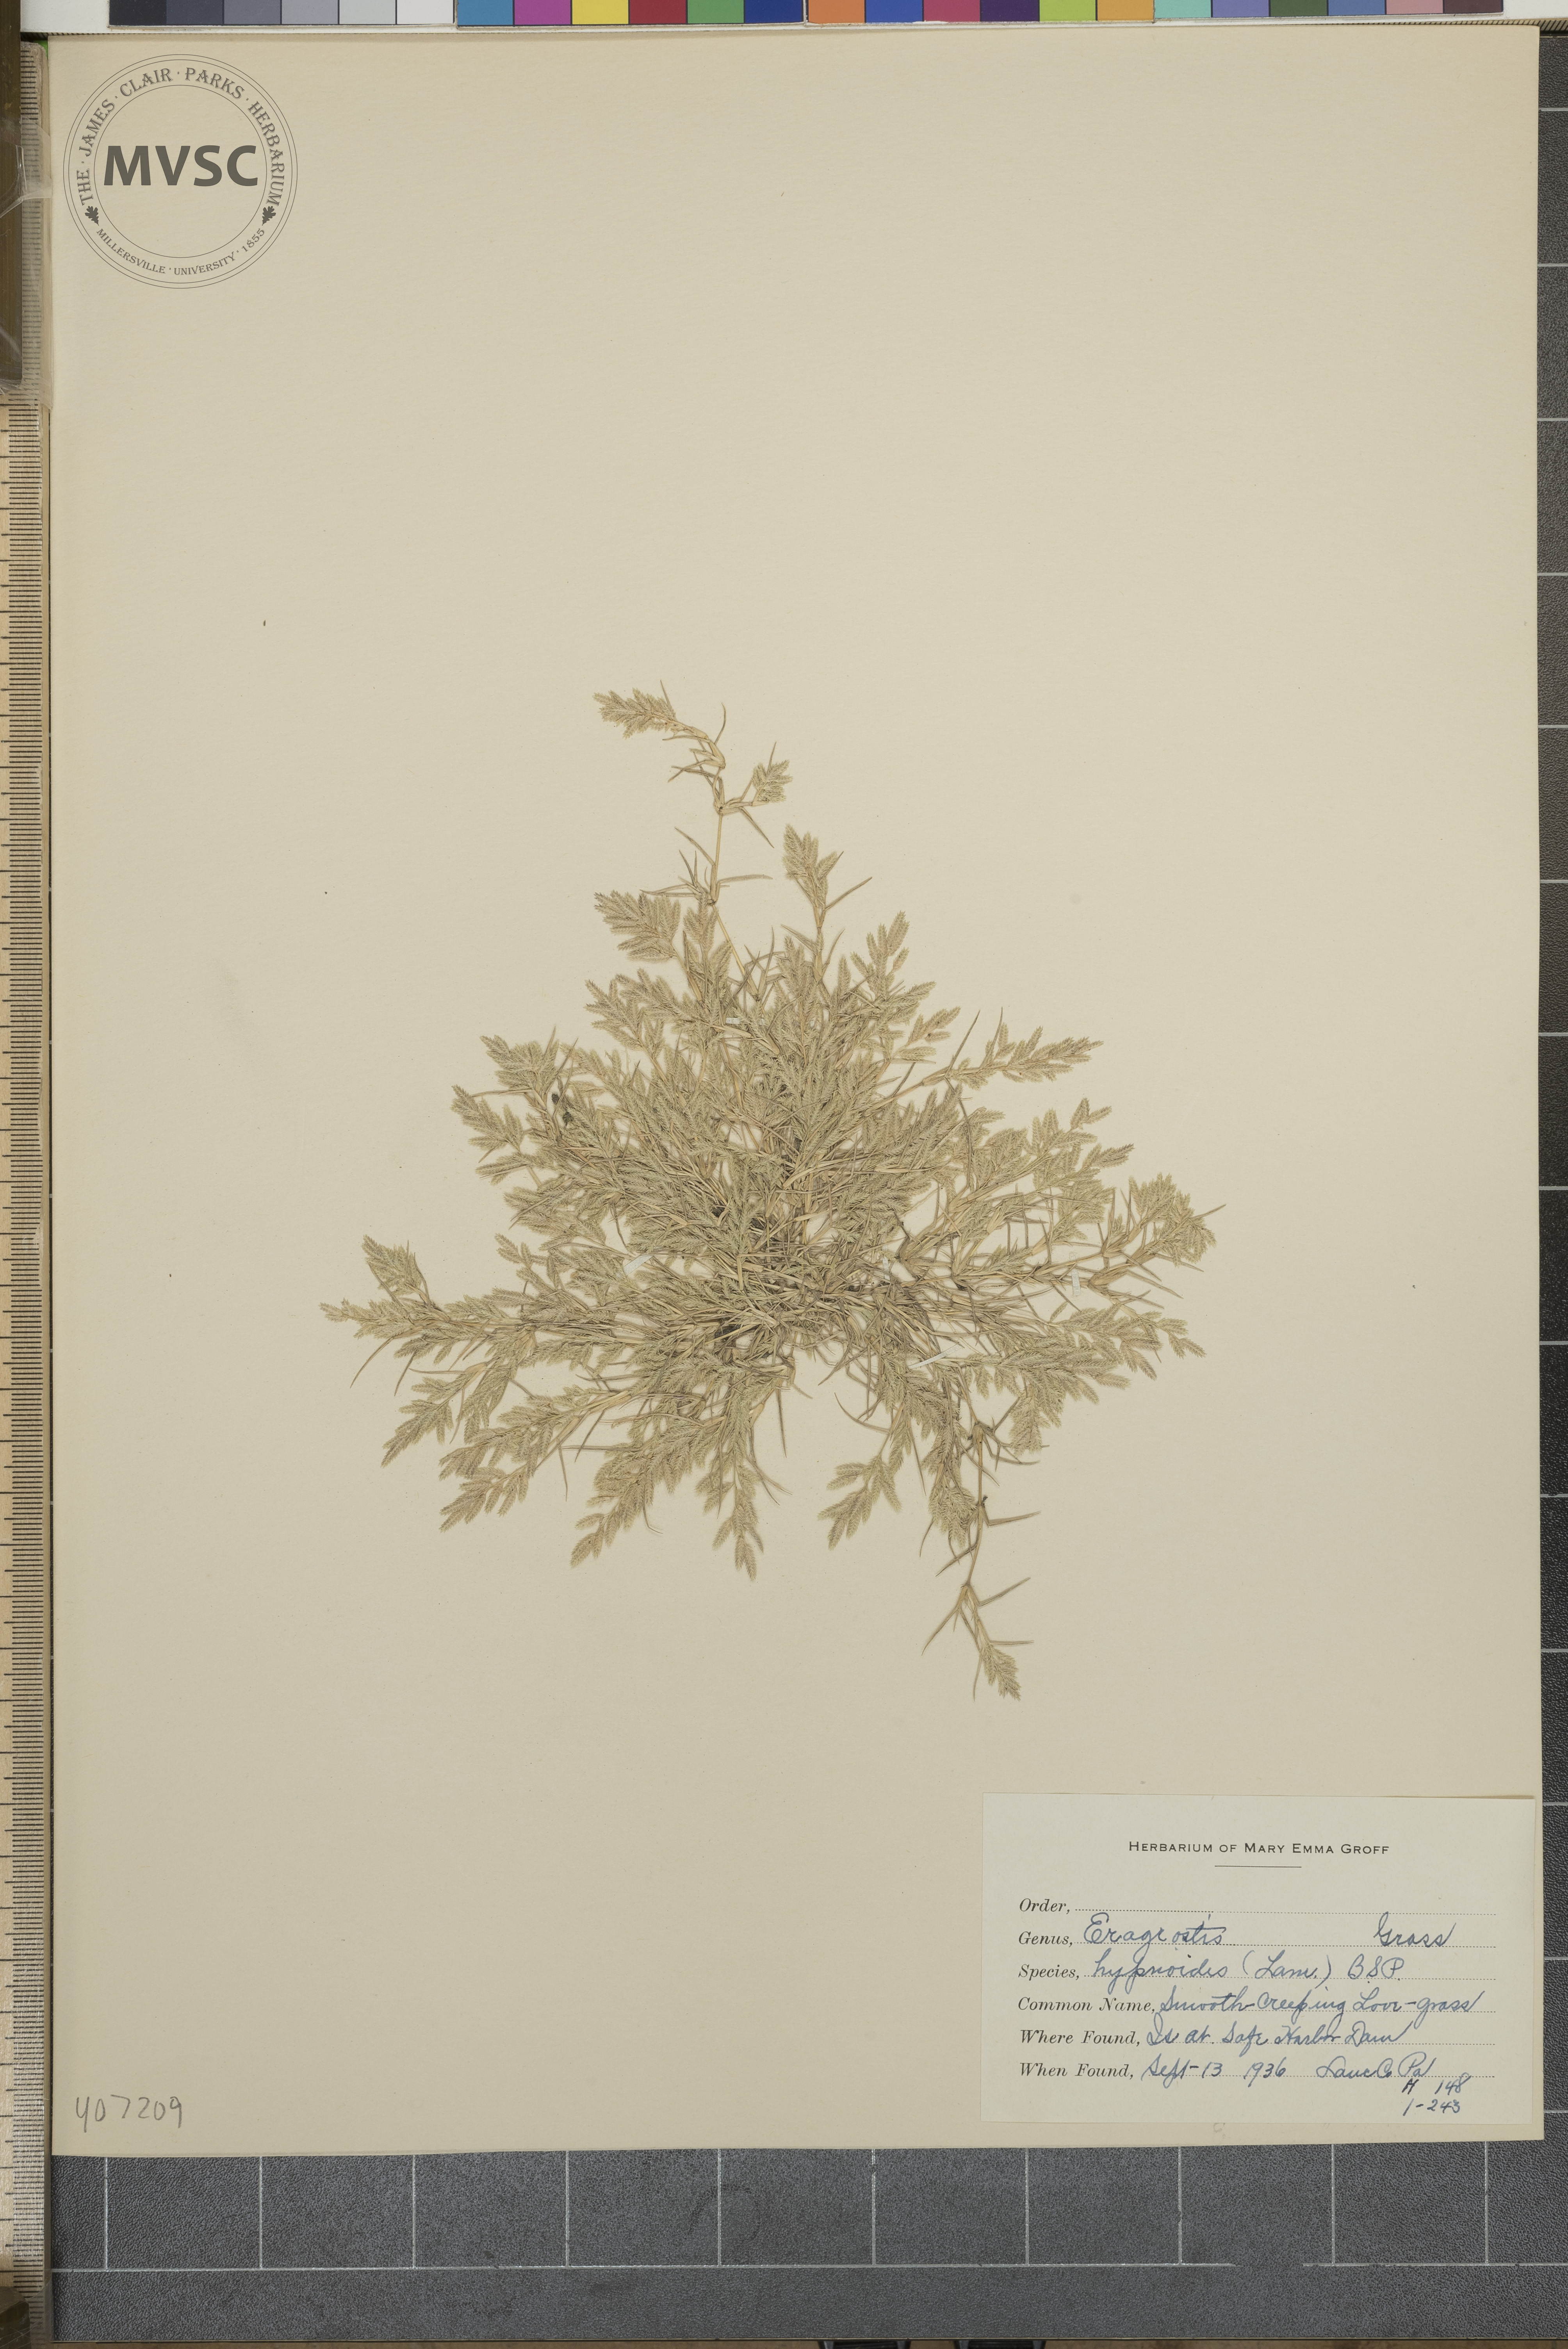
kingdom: Plantae
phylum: Tracheophyta
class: Liliopsida
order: Poales
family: Poaceae
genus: Eragrostis
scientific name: Eragrostis hypnoides
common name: Creeping love grass
